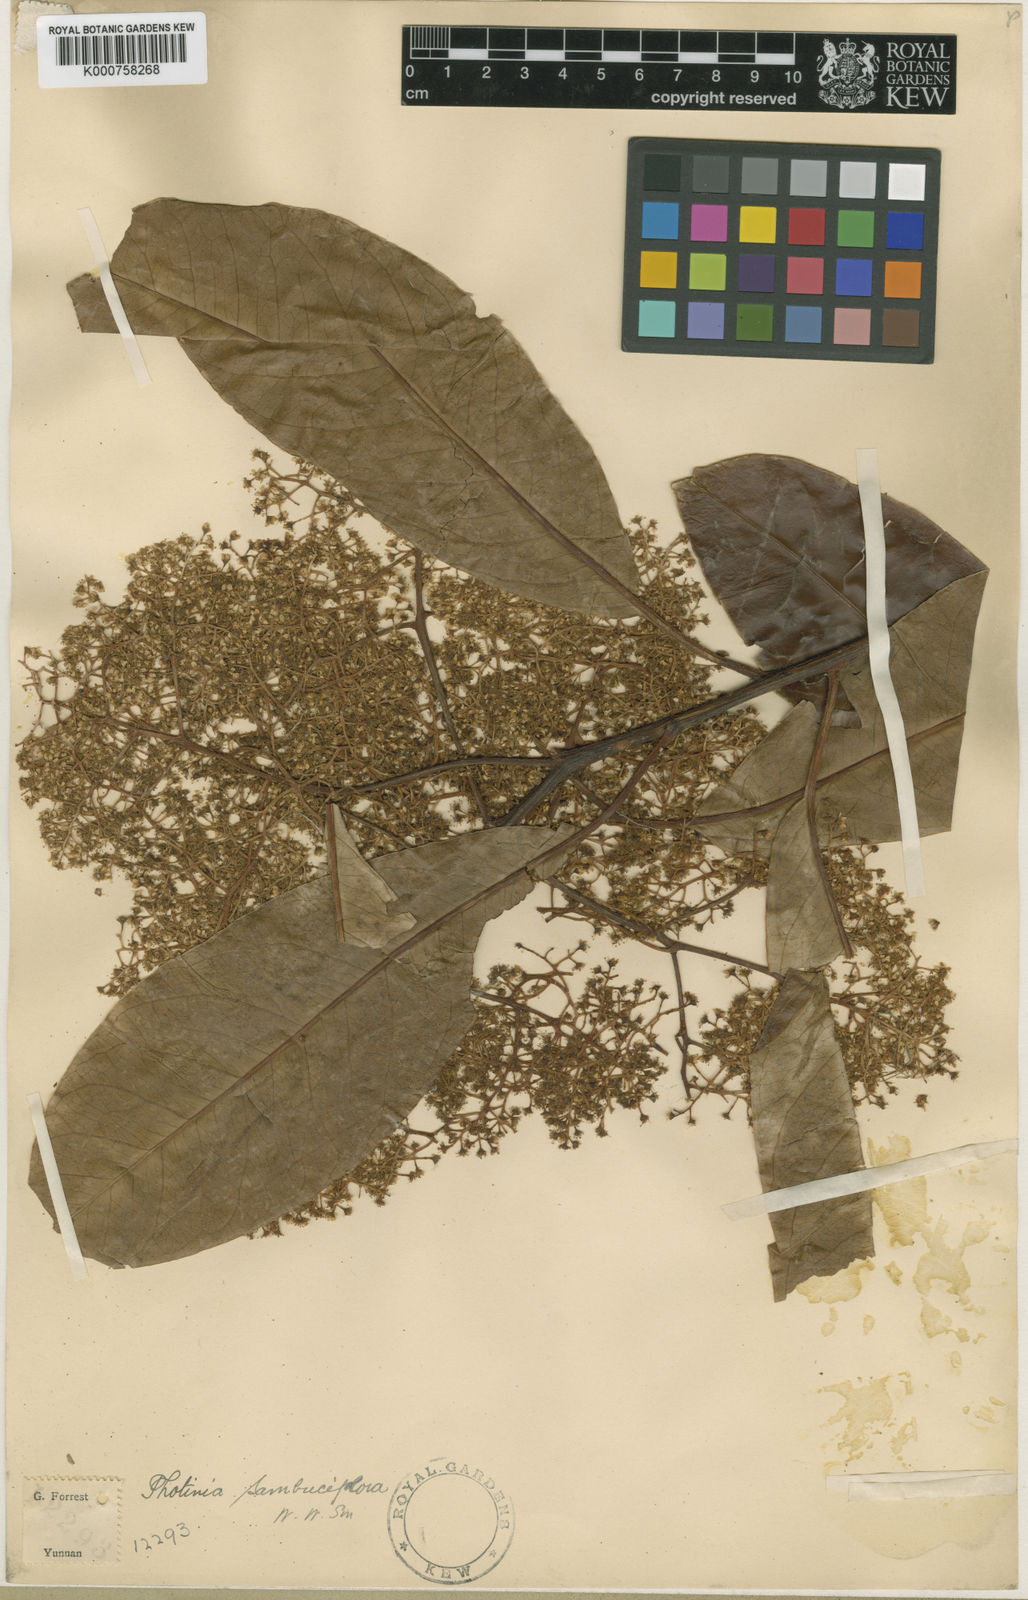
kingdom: Plantae
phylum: Tracheophyta
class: Magnoliopsida
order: Rosales
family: Rosaceae
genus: Photinia
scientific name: Photinia integrifolia
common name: Himalayan chokeberry
